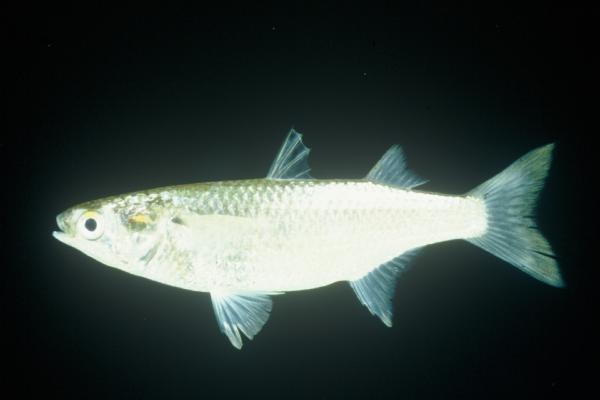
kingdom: Animalia
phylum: Chordata
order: Mugiliformes
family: Mugilidae
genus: Osteomugil
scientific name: Osteomugil cunnesius
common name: Longarm mullet
